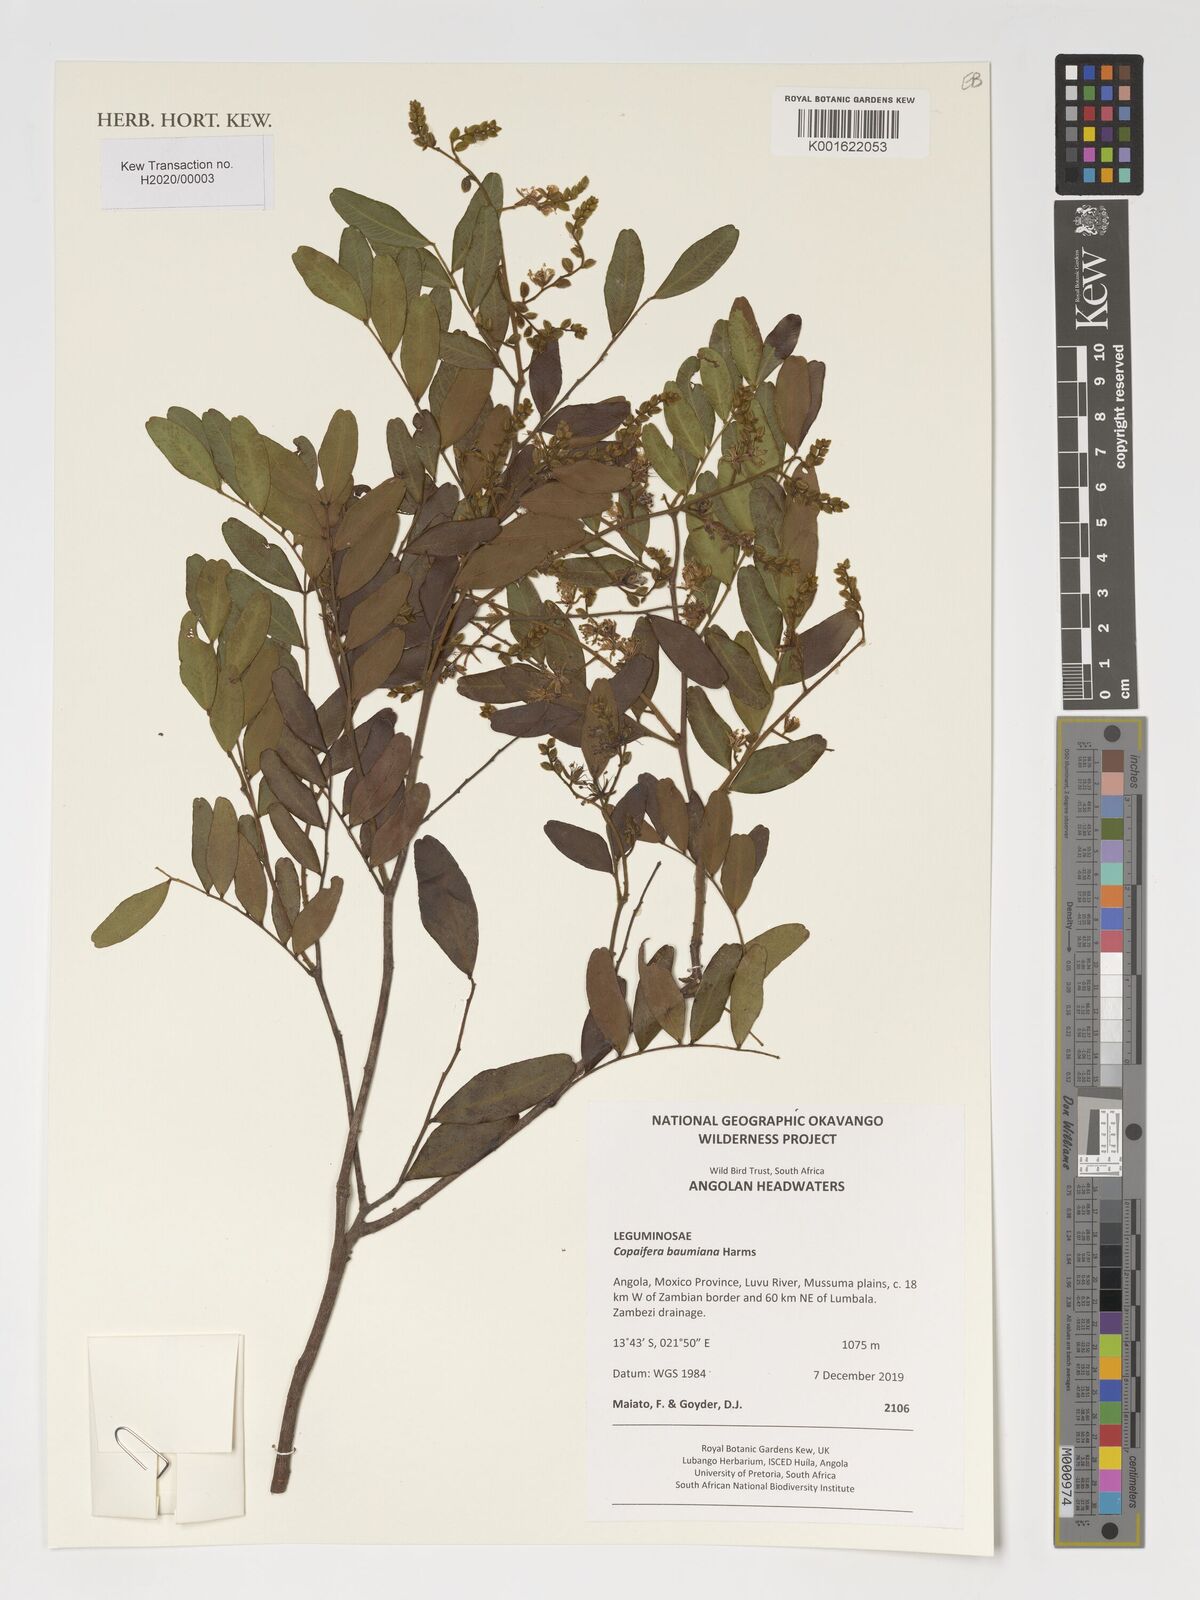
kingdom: Plantae
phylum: Tracheophyta
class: Magnoliopsida
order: Fabales
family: Fabaceae
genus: Copaifera
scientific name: Copaifera baumiana
